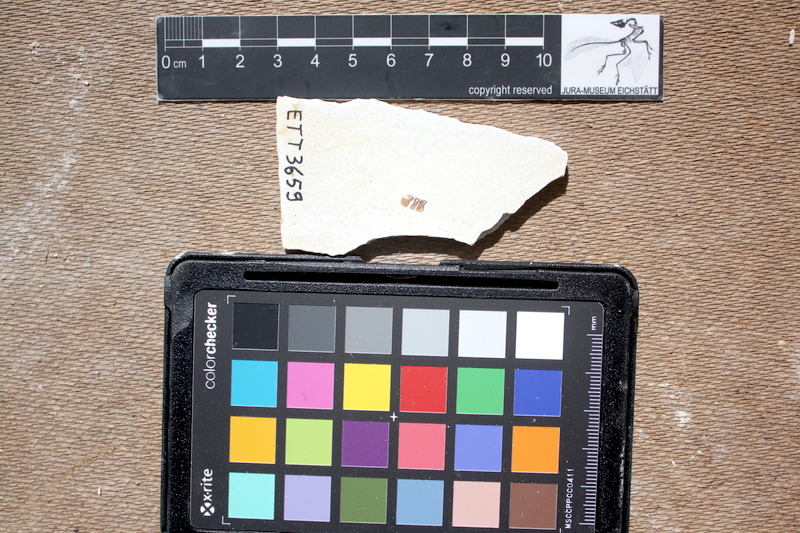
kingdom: Animalia
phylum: Chordata
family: Macrosemiidae
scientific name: Macrosemiidae
